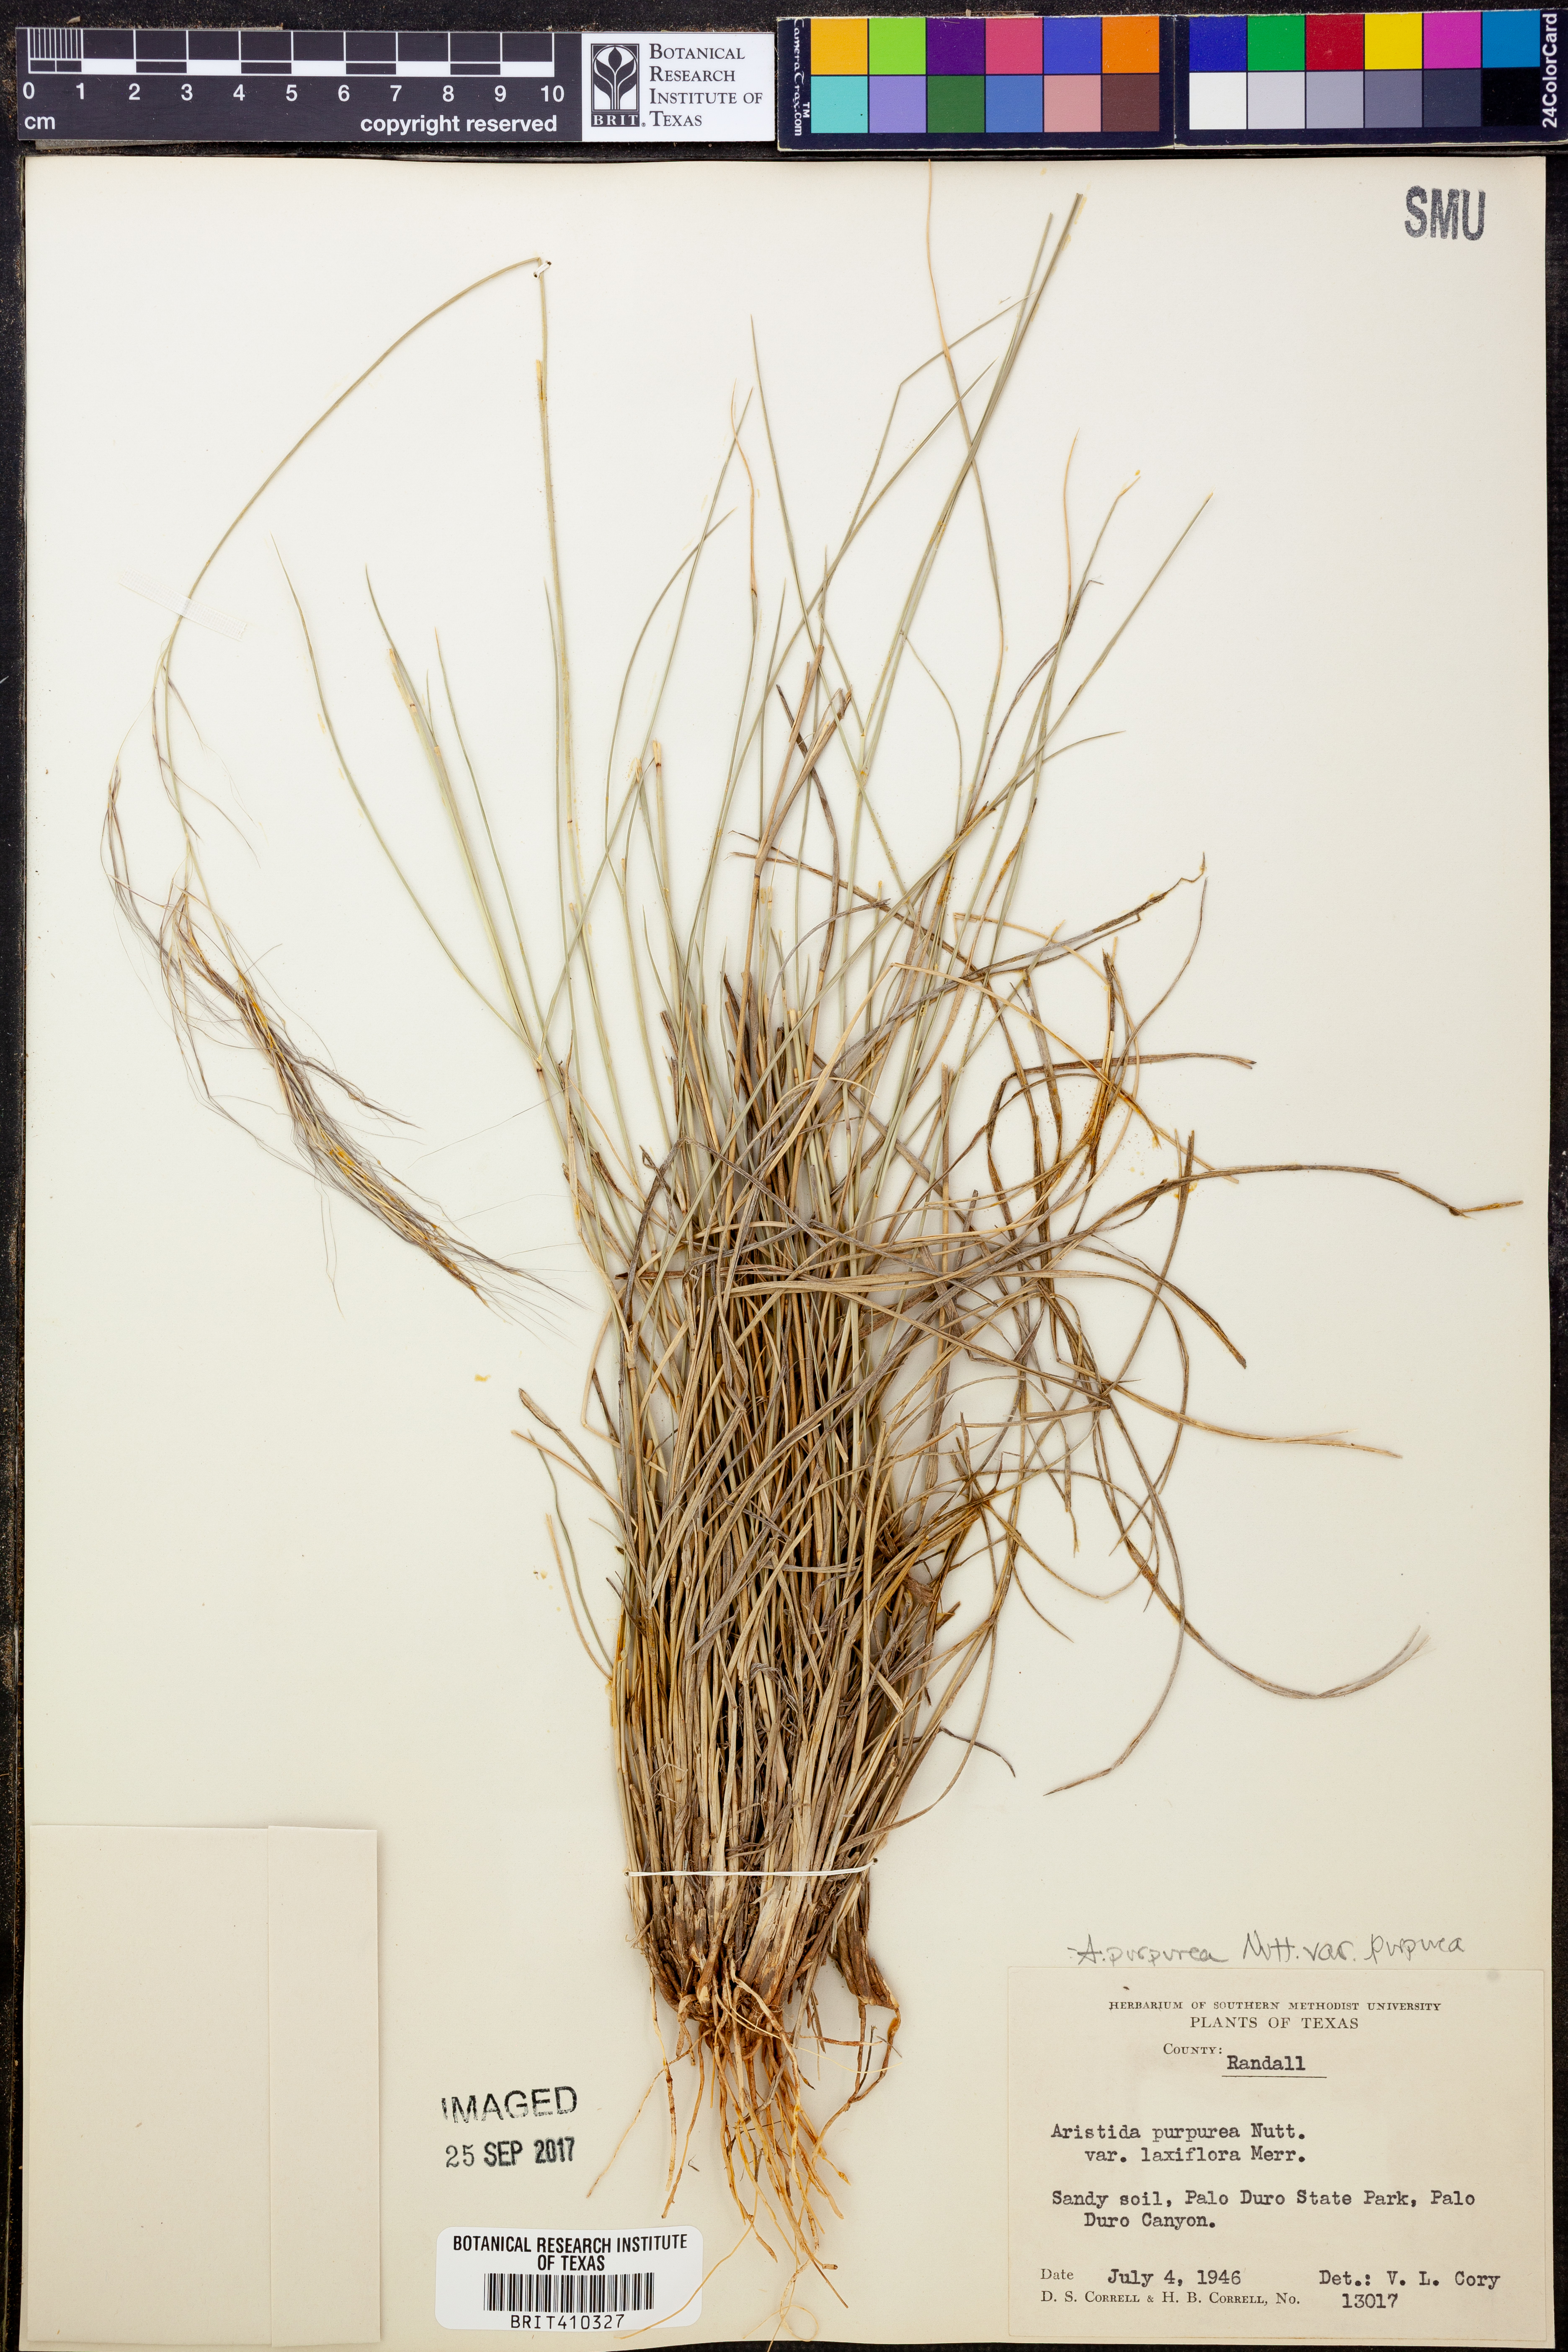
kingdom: Plantae
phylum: Tracheophyta
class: Liliopsida
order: Poales
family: Poaceae
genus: Aristida
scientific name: Aristida purpurea
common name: Purple threeawn
